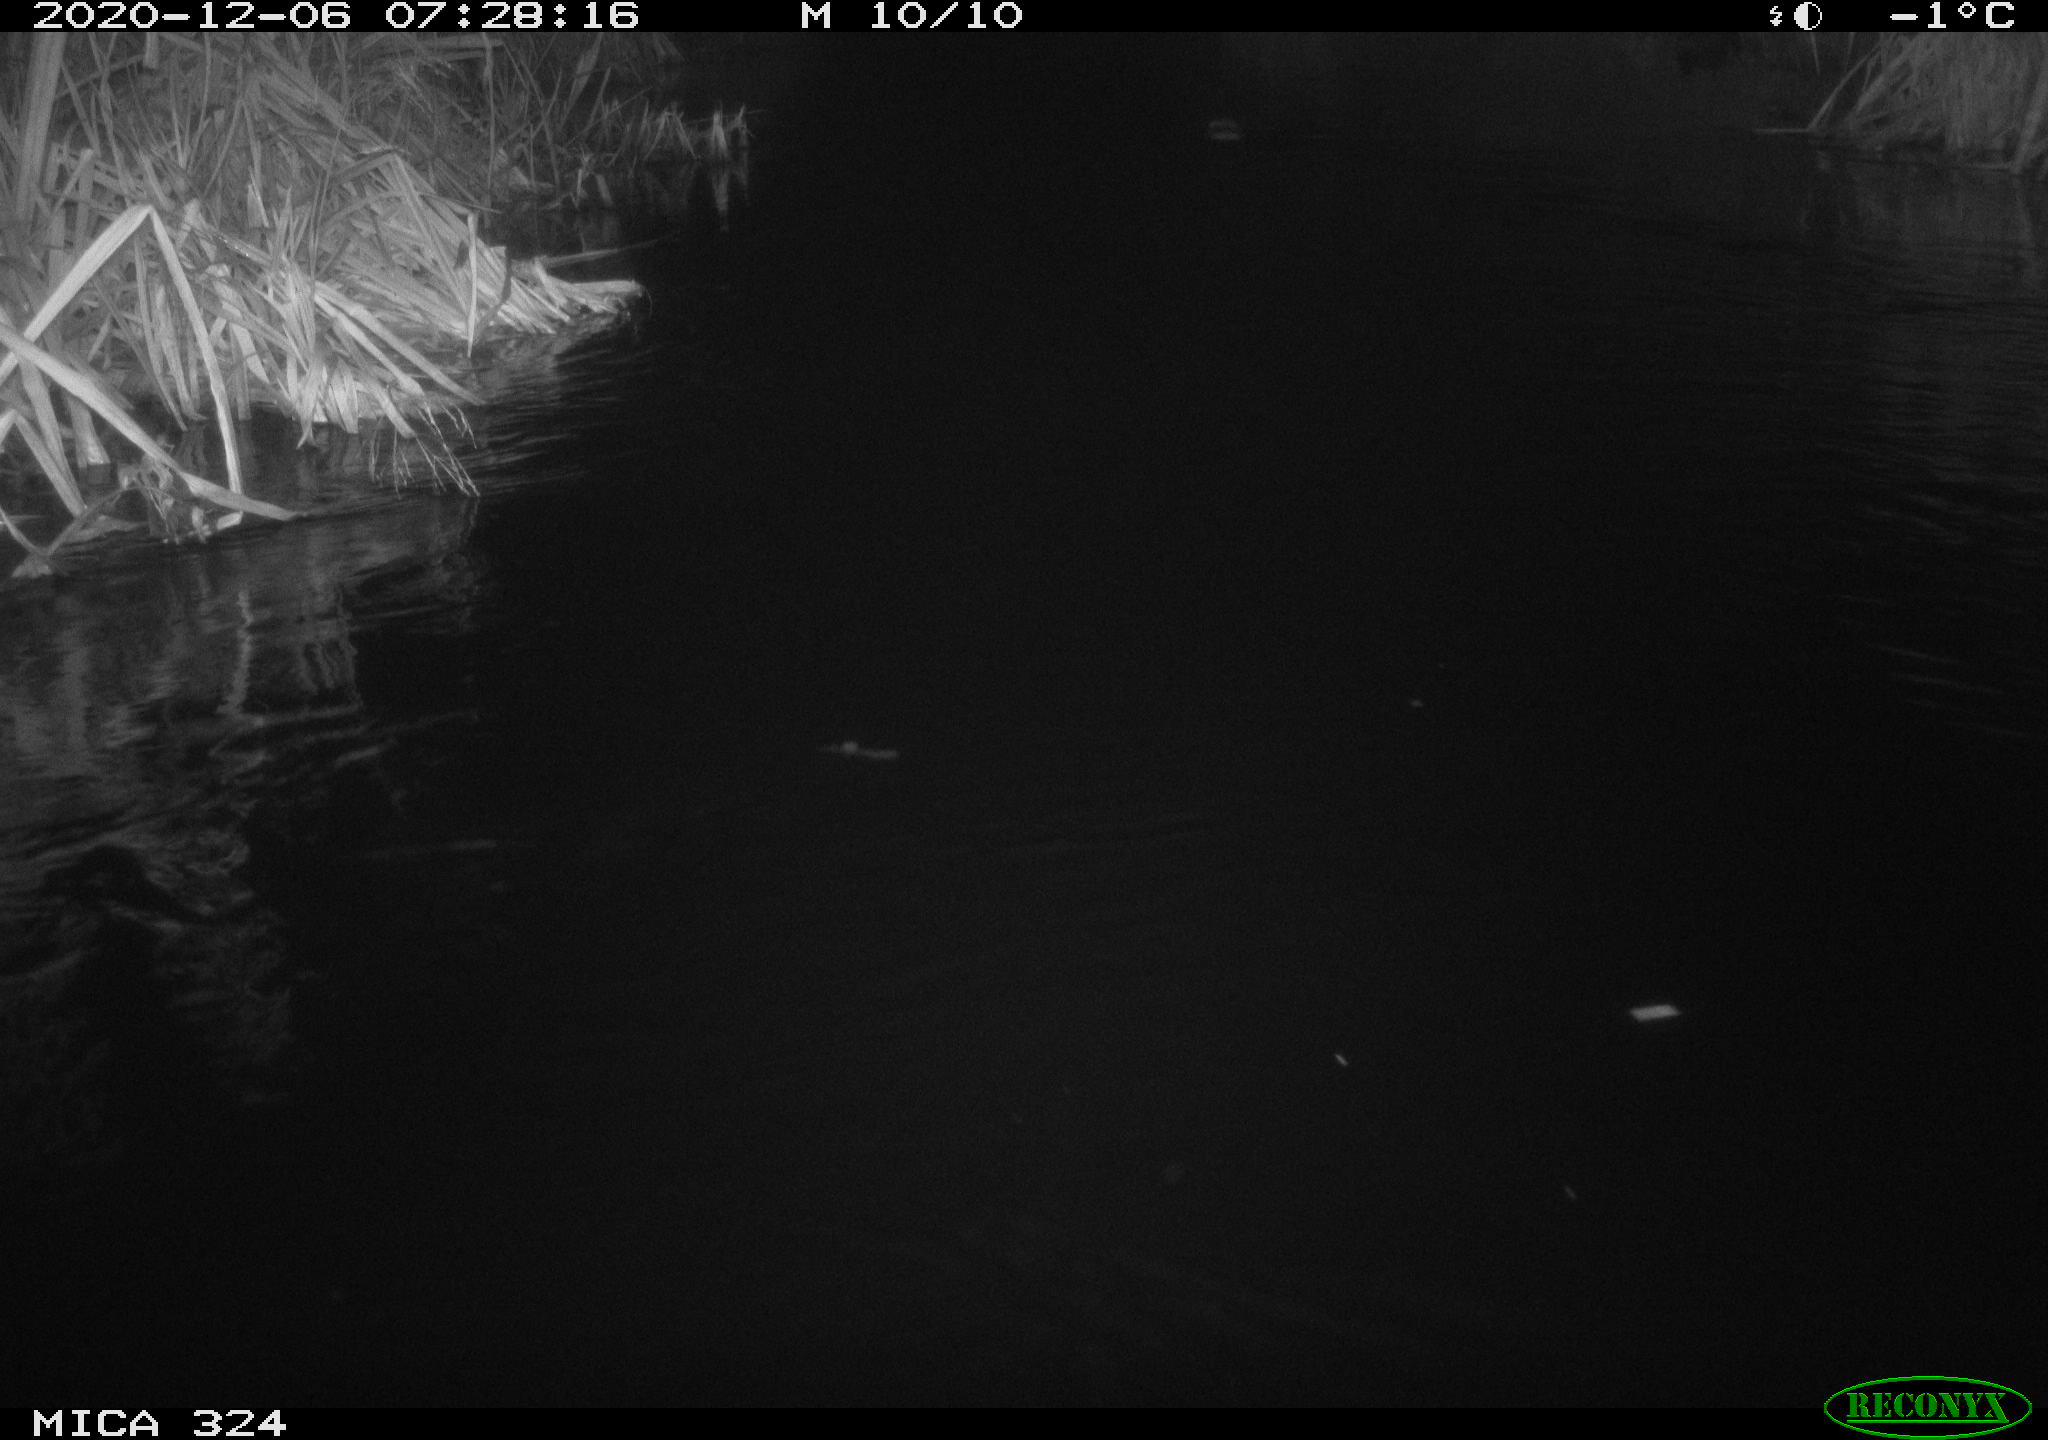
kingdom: Animalia
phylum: Chordata
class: Mammalia
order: Rodentia
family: Cricetidae
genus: Ondatra
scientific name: Ondatra zibethicus
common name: Muskrat
